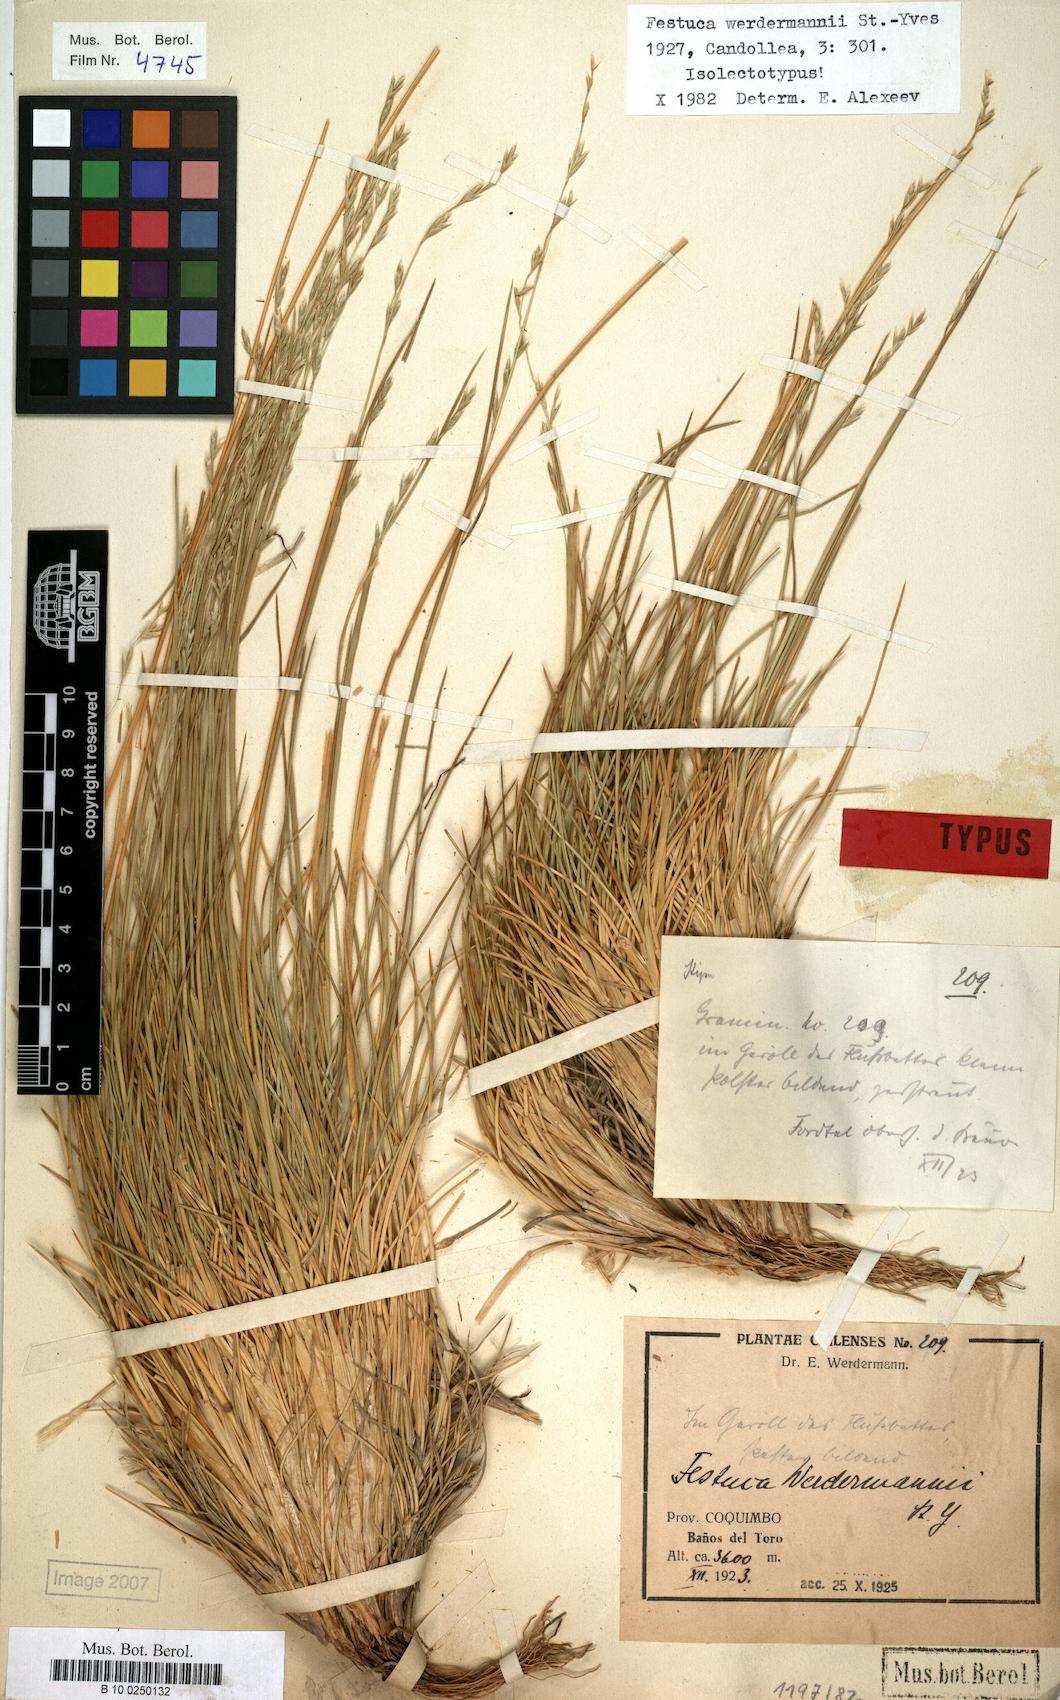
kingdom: Plantae
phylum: Tracheophyta
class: Liliopsida
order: Poales
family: Poaceae
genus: Festuca
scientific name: Festuca werdermannii
